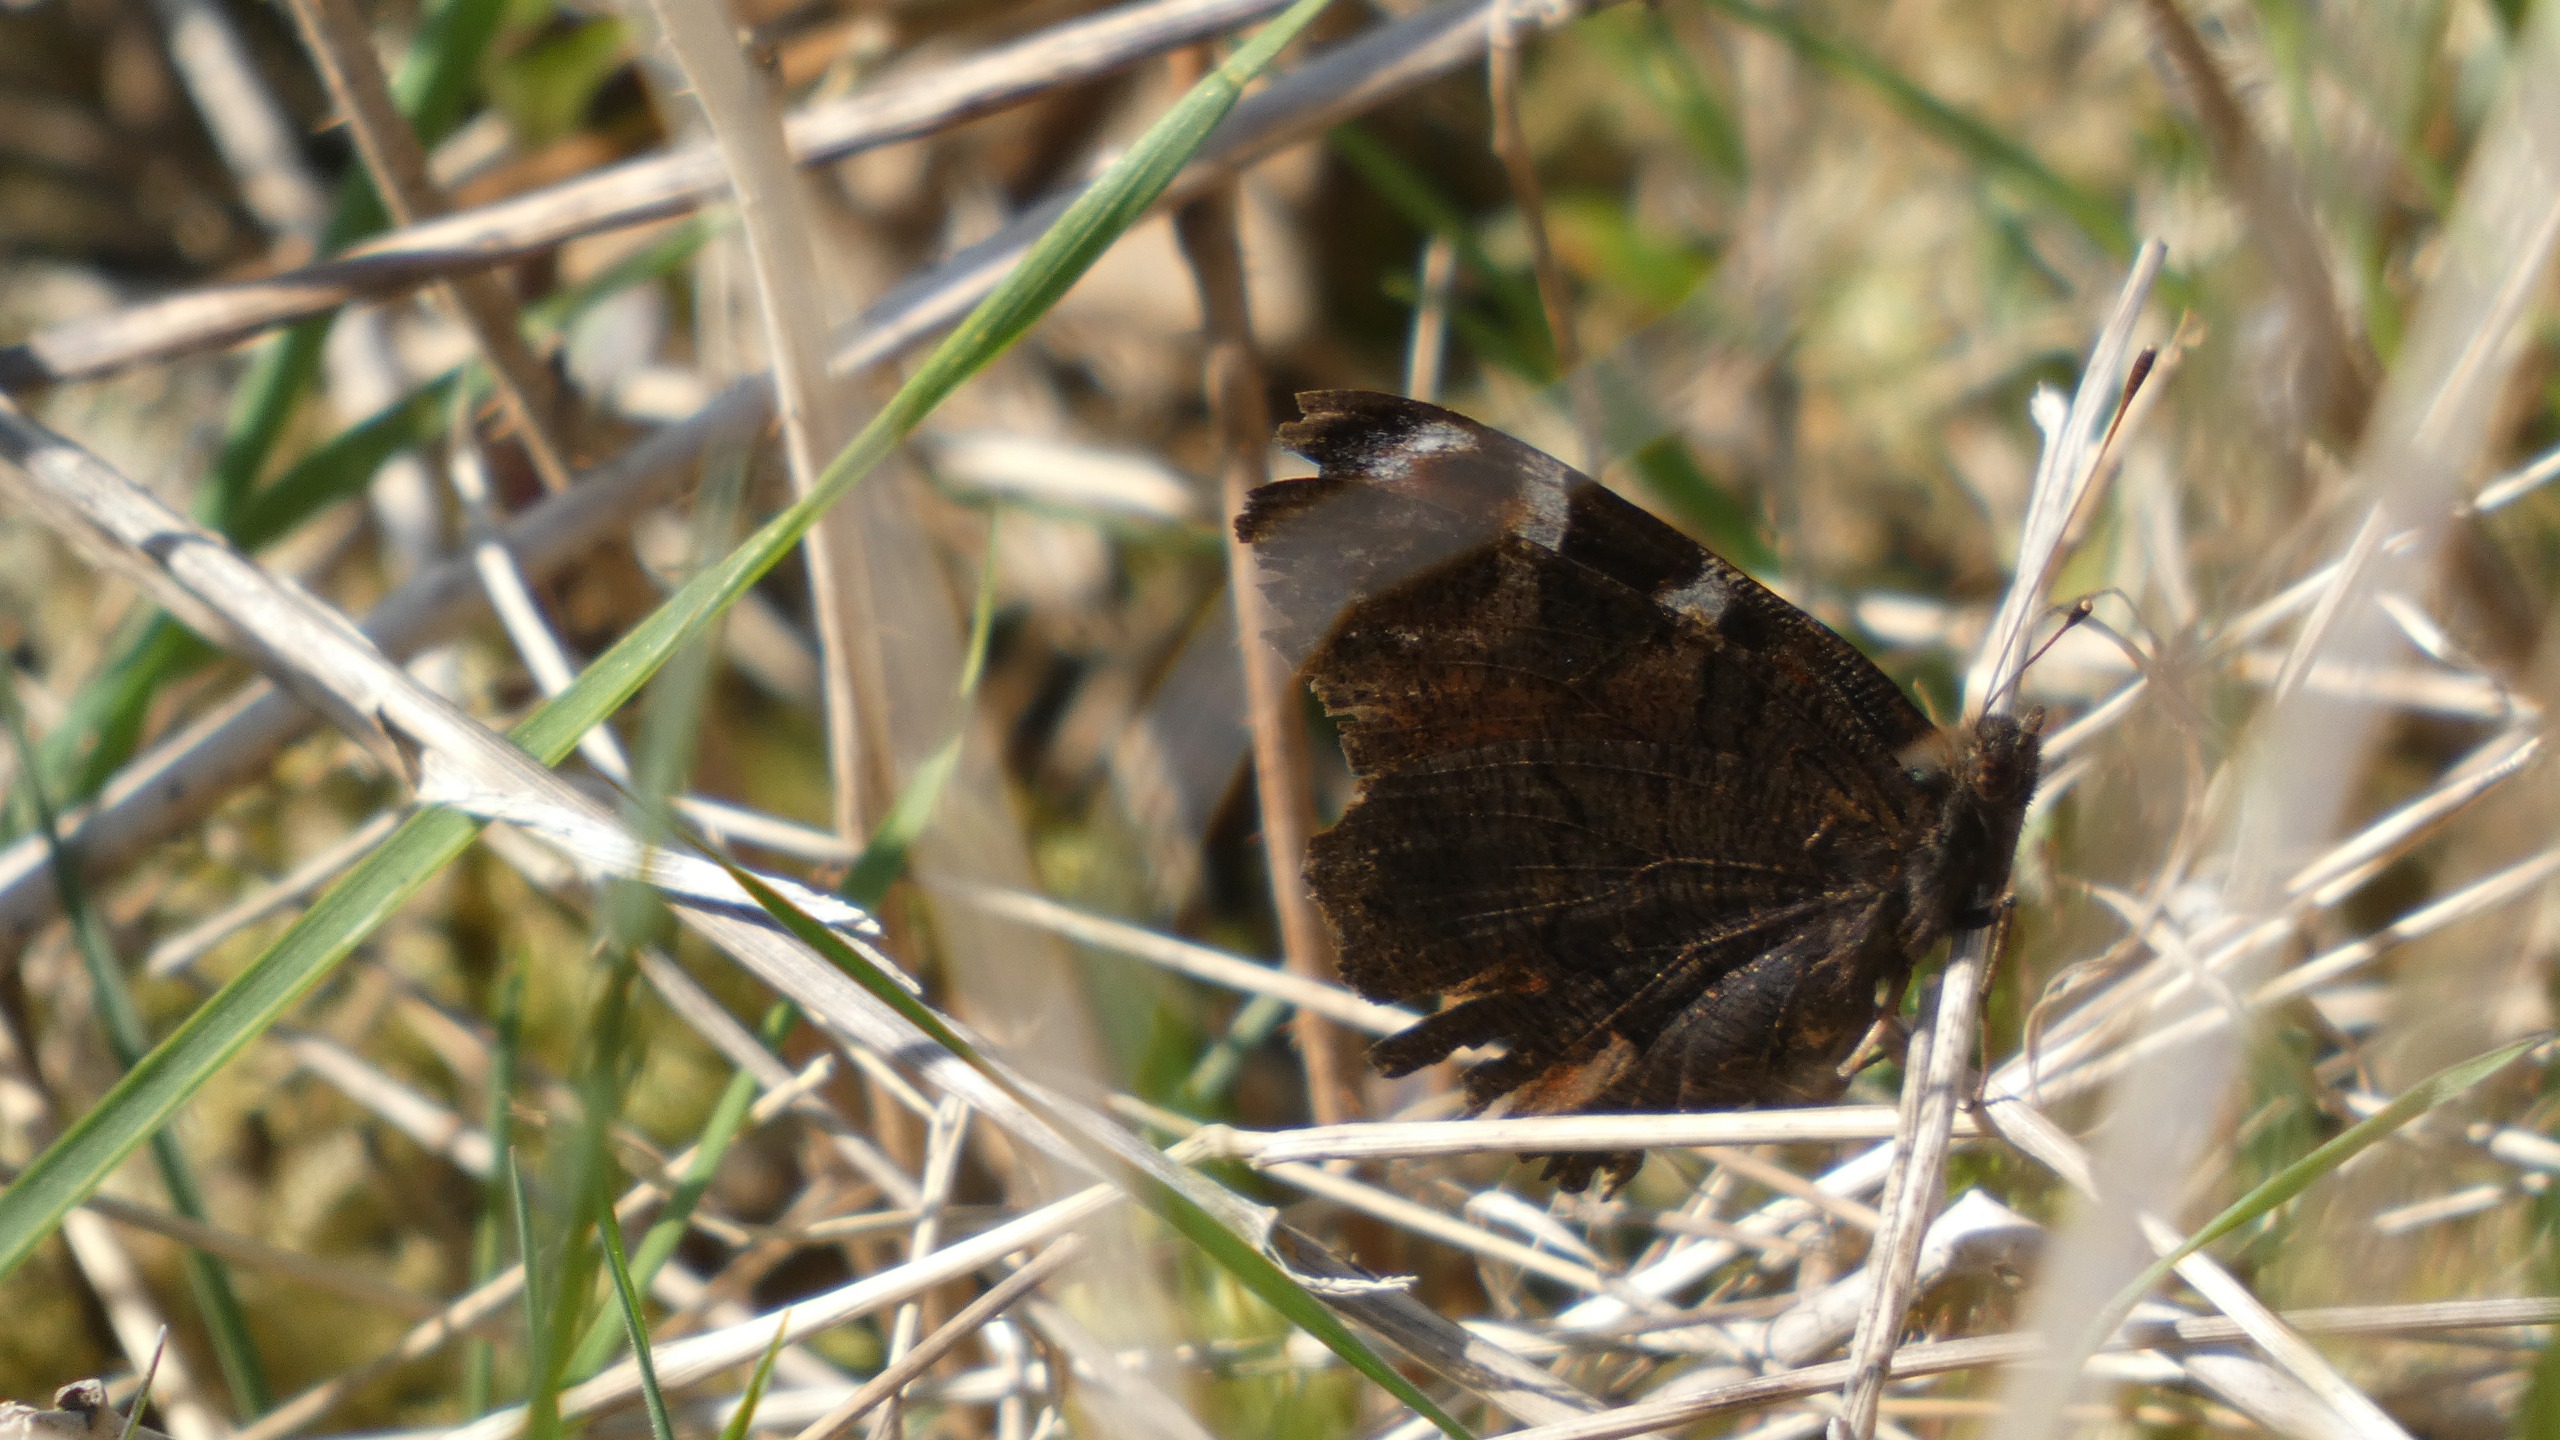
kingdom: Animalia
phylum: Arthropoda
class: Insecta
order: Lepidoptera
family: Nymphalidae
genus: Aglais
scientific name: Aglais io
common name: Dagpåfugleøje
